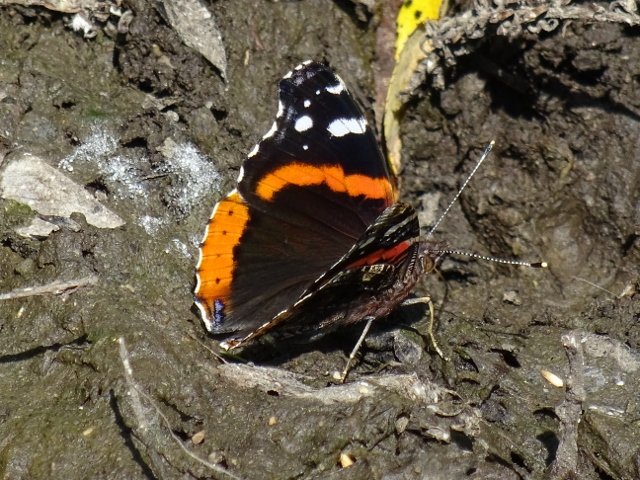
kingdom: Animalia
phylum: Arthropoda
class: Insecta
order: Lepidoptera
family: Nymphalidae
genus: Vanessa
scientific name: Vanessa atalanta
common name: Red Admiral
